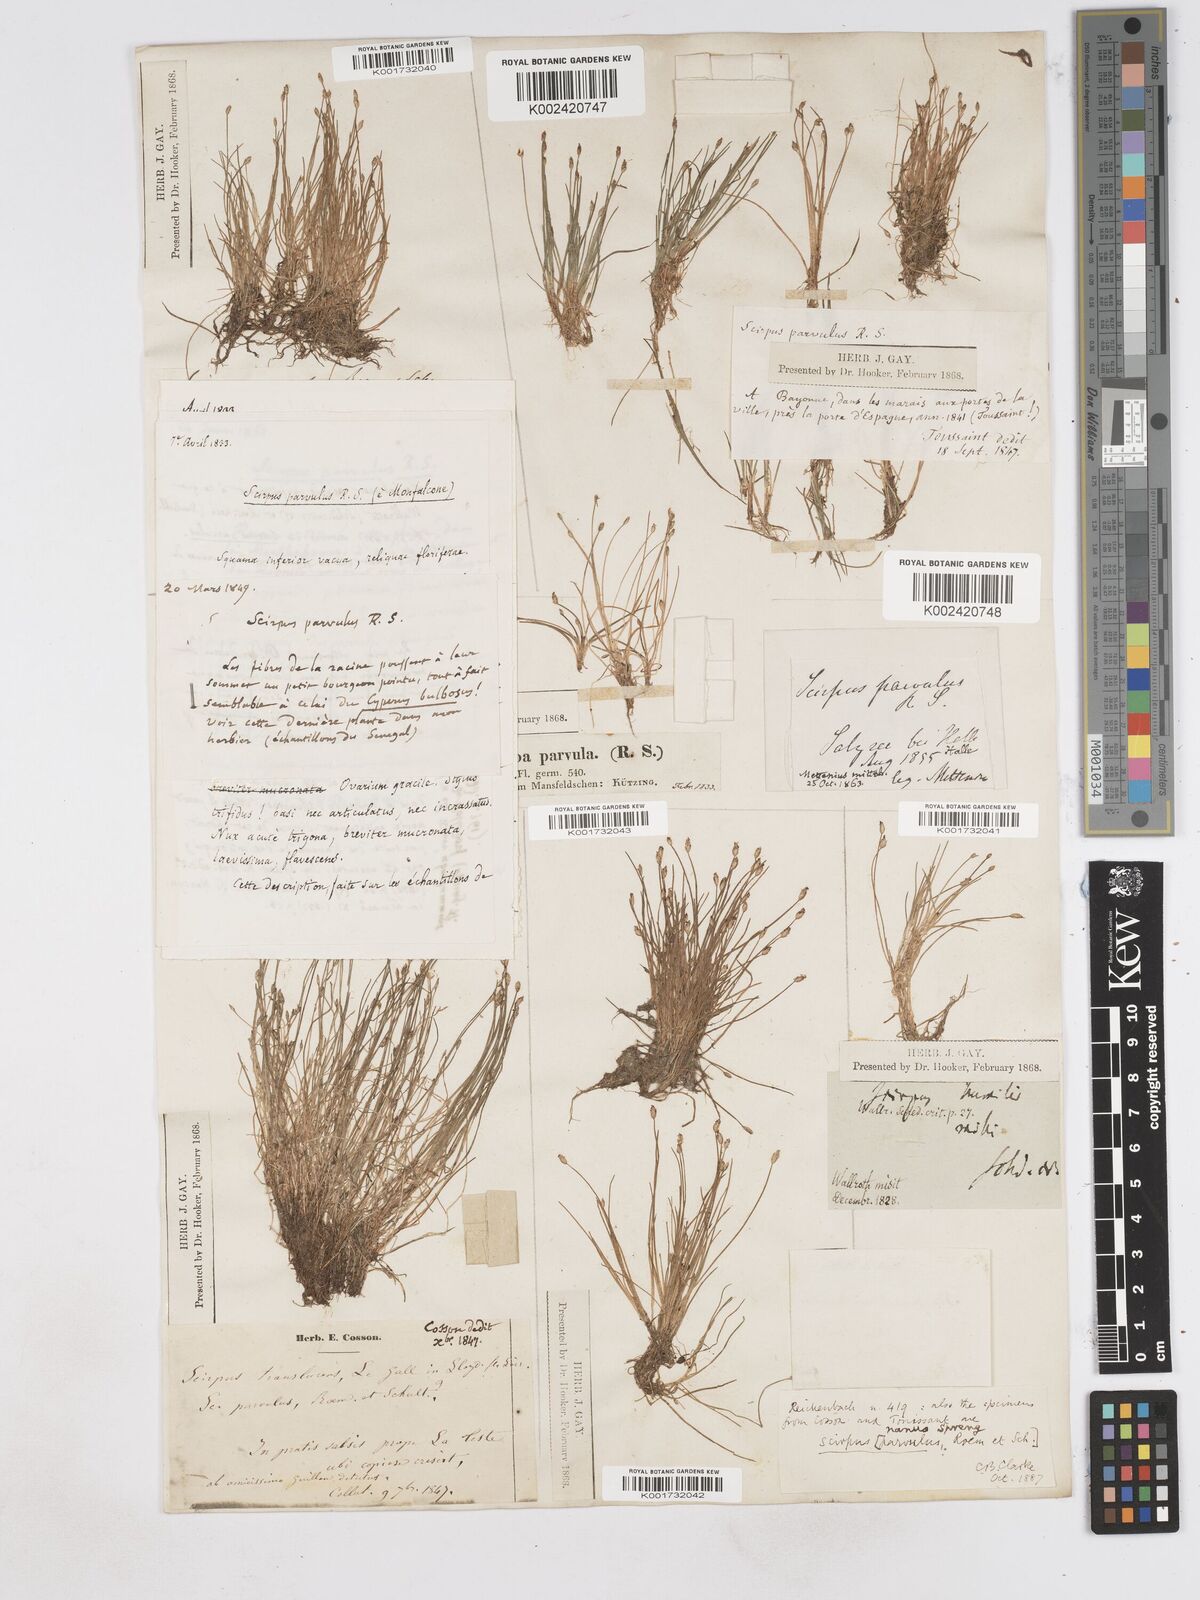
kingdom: Plantae
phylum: Tracheophyta
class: Liliopsida
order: Poales
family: Cyperaceae
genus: Eleocharis
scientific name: Eleocharis parvula
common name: Dwarf spike-rush
